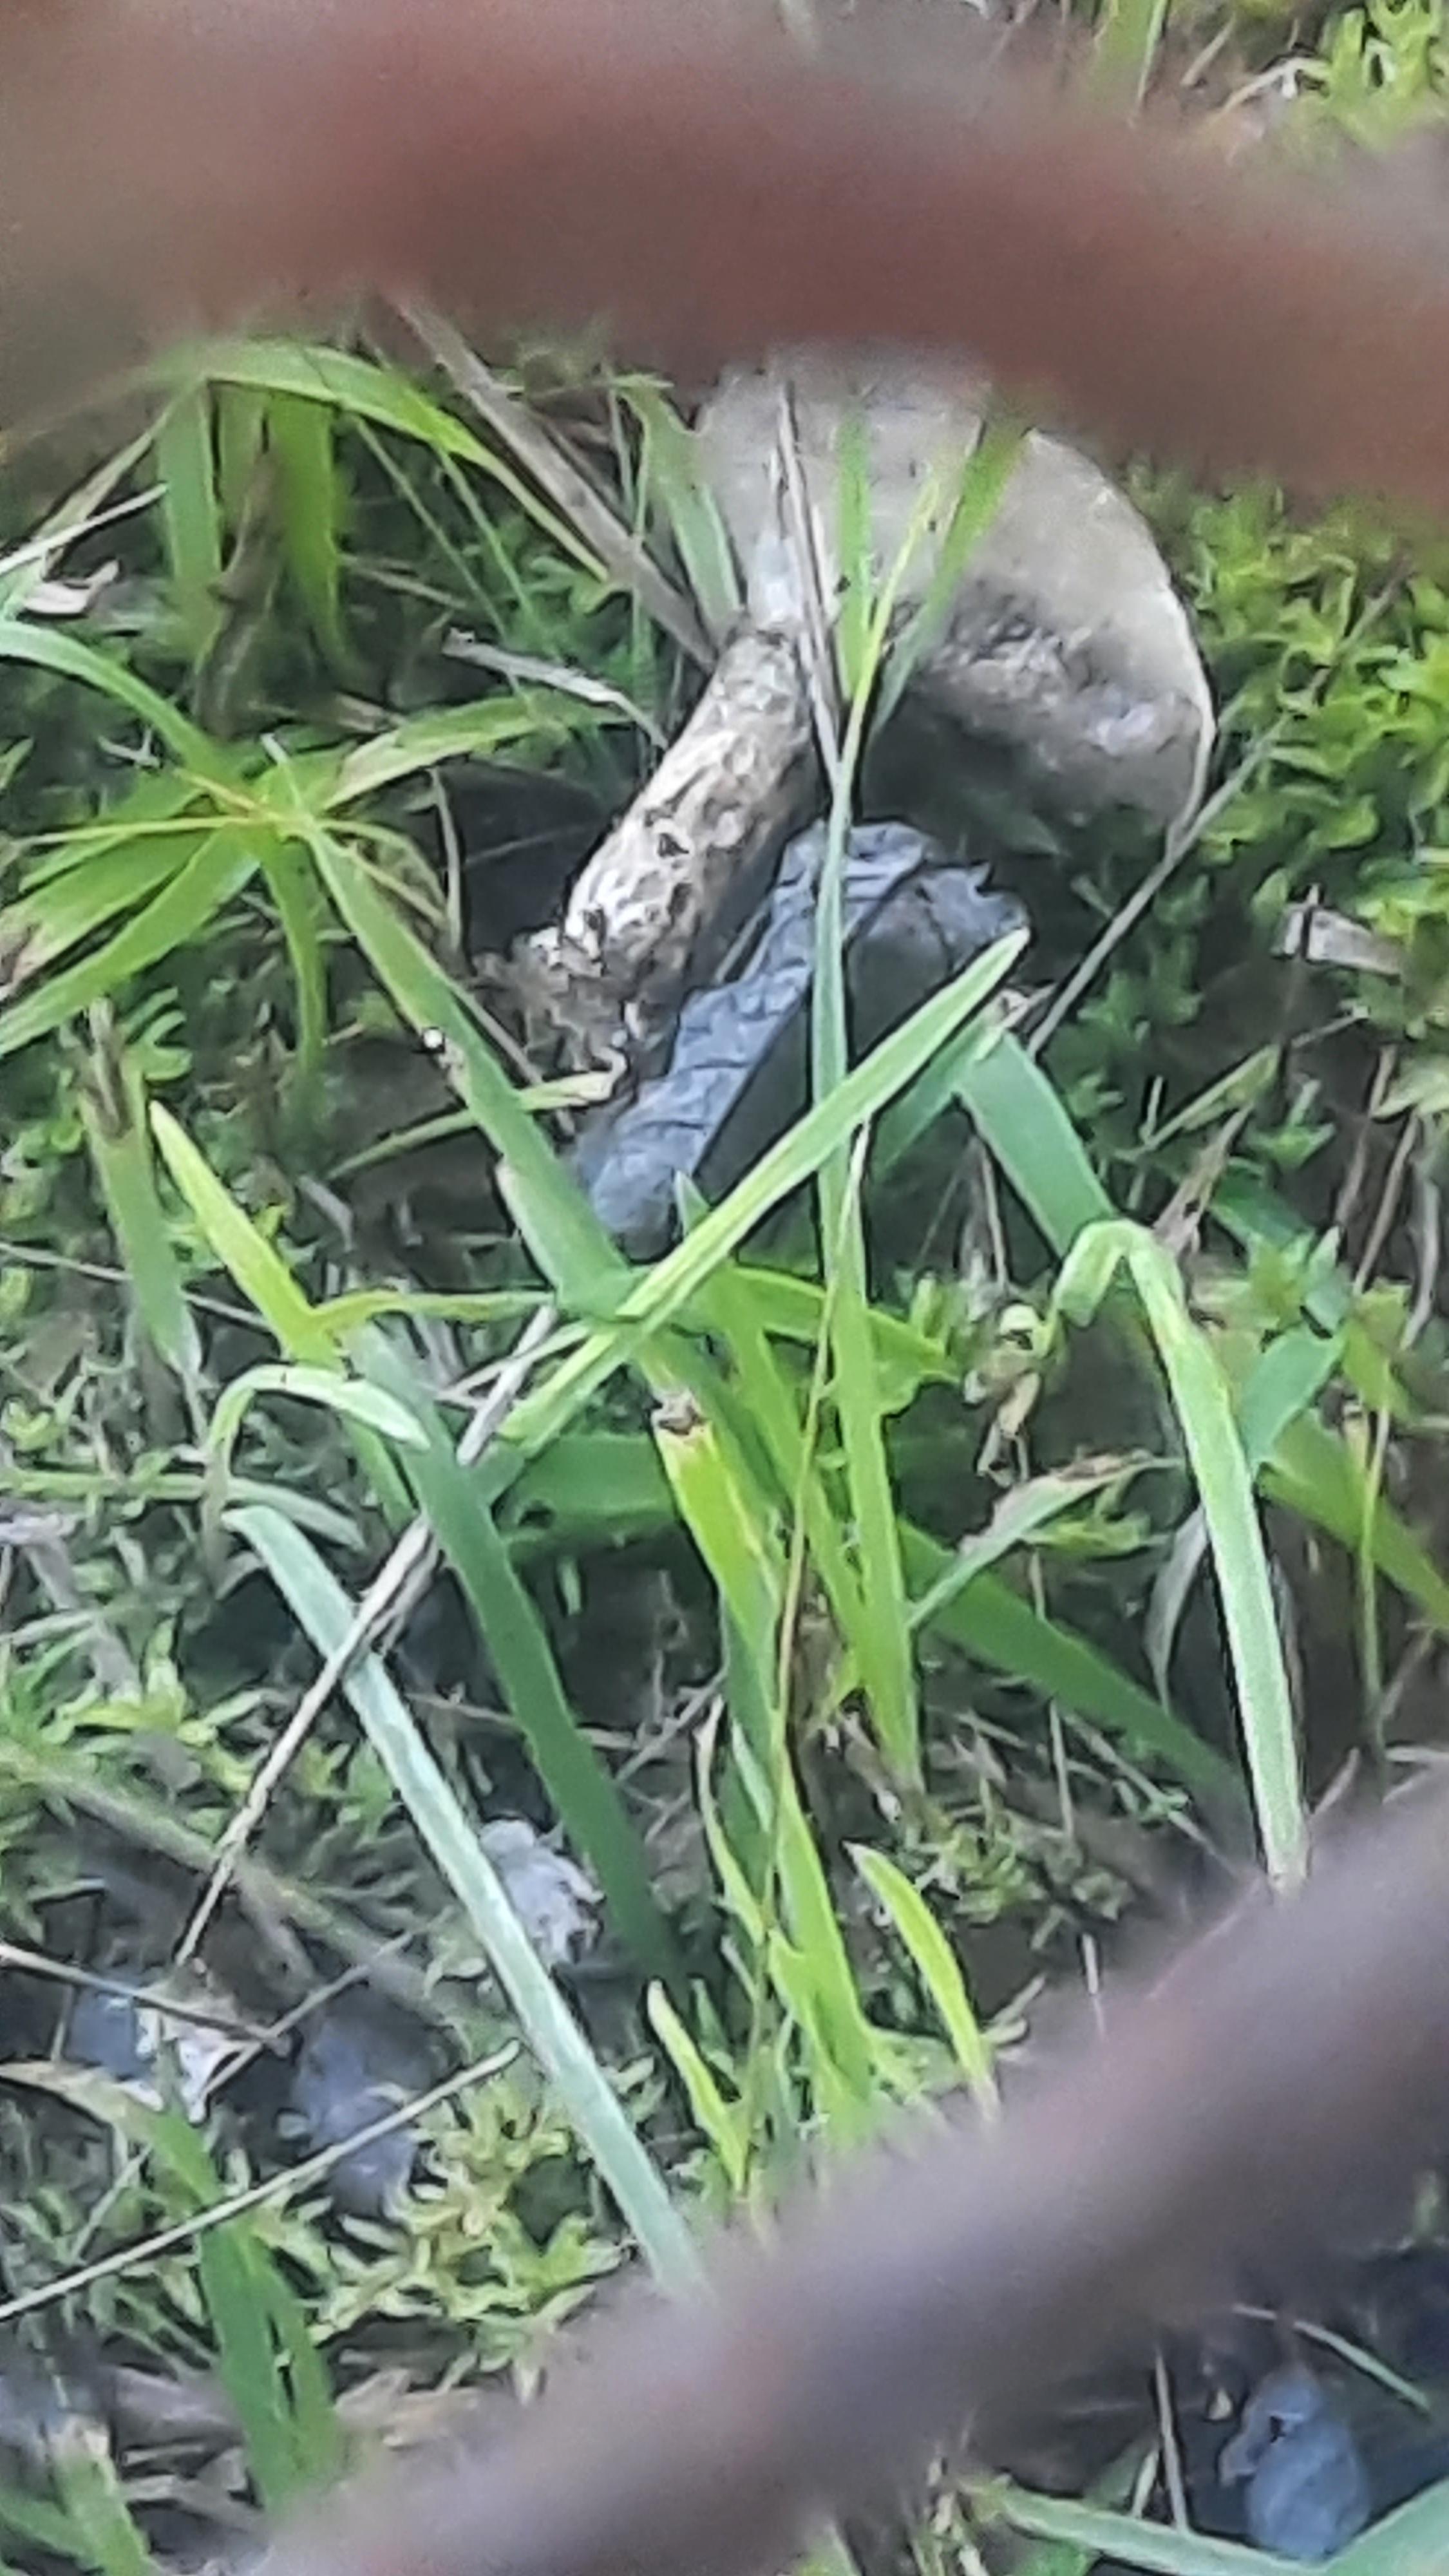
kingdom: Fungi
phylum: Basidiomycota
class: Agaricomycetes
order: Boletales
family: Suillaceae
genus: Suillus
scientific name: Suillus viscidus
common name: olivengrå slimrørhat
